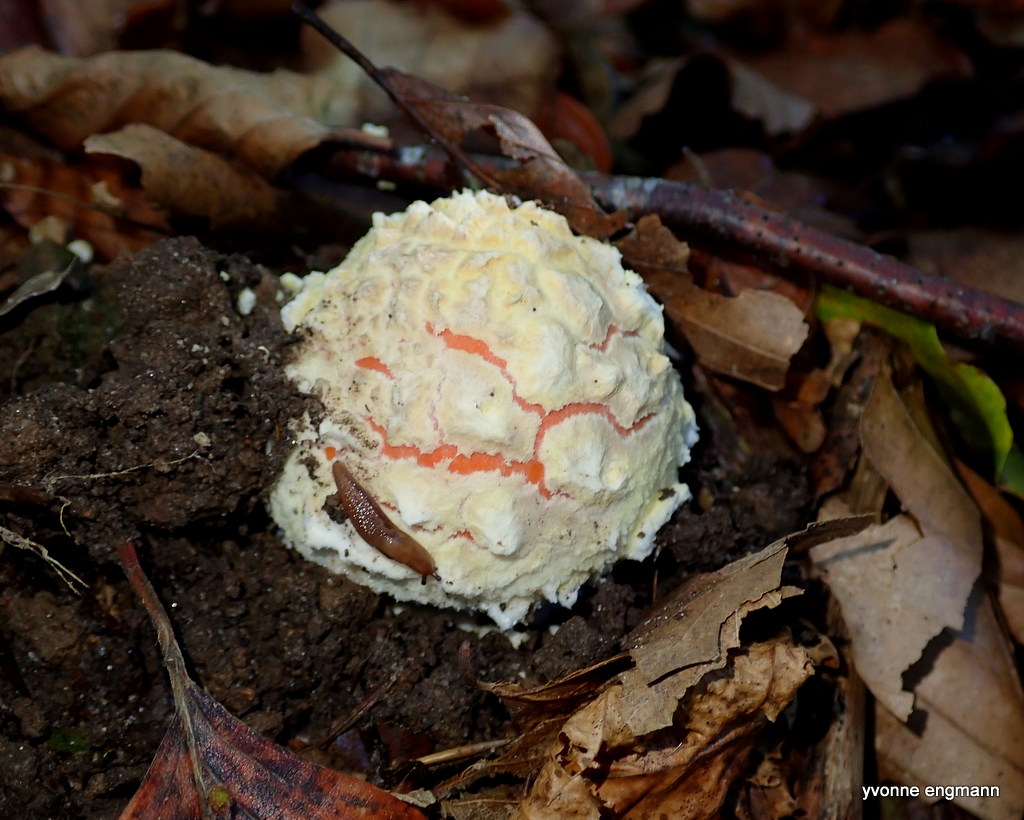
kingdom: Fungi
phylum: Basidiomycota
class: Agaricomycetes
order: Agaricales
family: Amanitaceae
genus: Amanita
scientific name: Amanita muscaria
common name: rød fluesvamp
